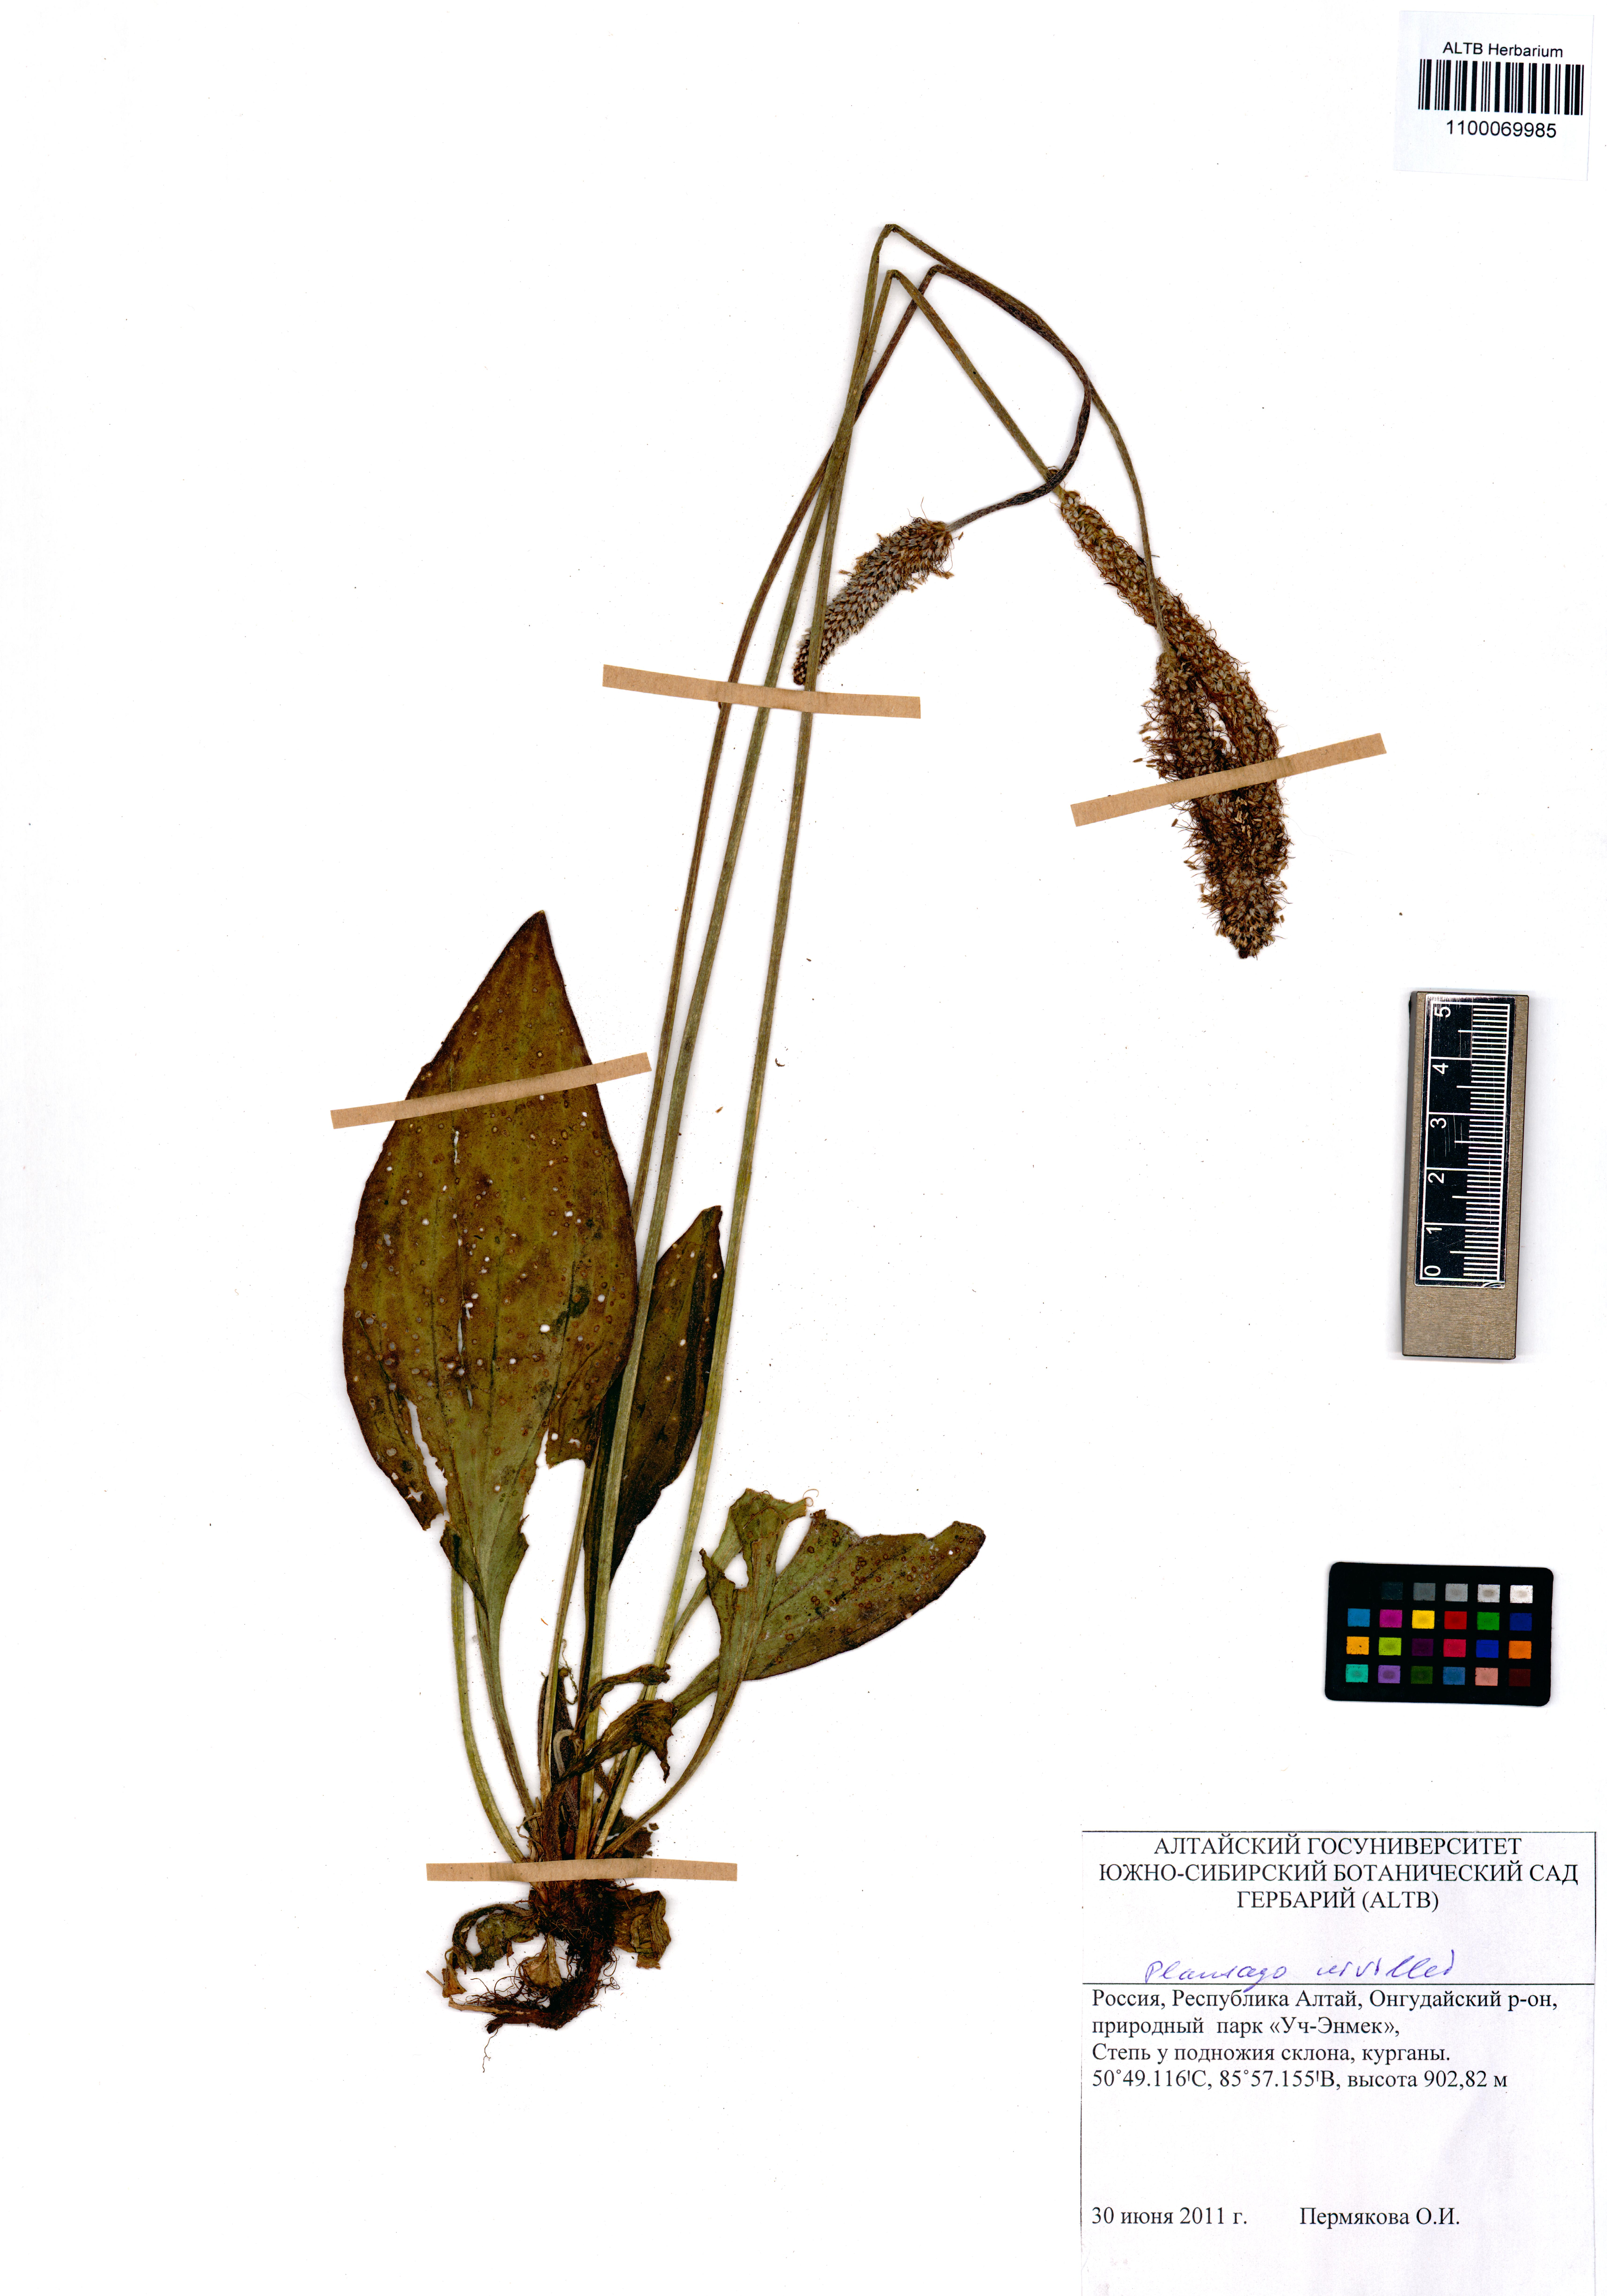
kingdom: Plantae
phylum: Tracheophyta
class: Magnoliopsida
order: Lamiales
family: Plantaginaceae
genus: Plantago
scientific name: Plantago urvillei
